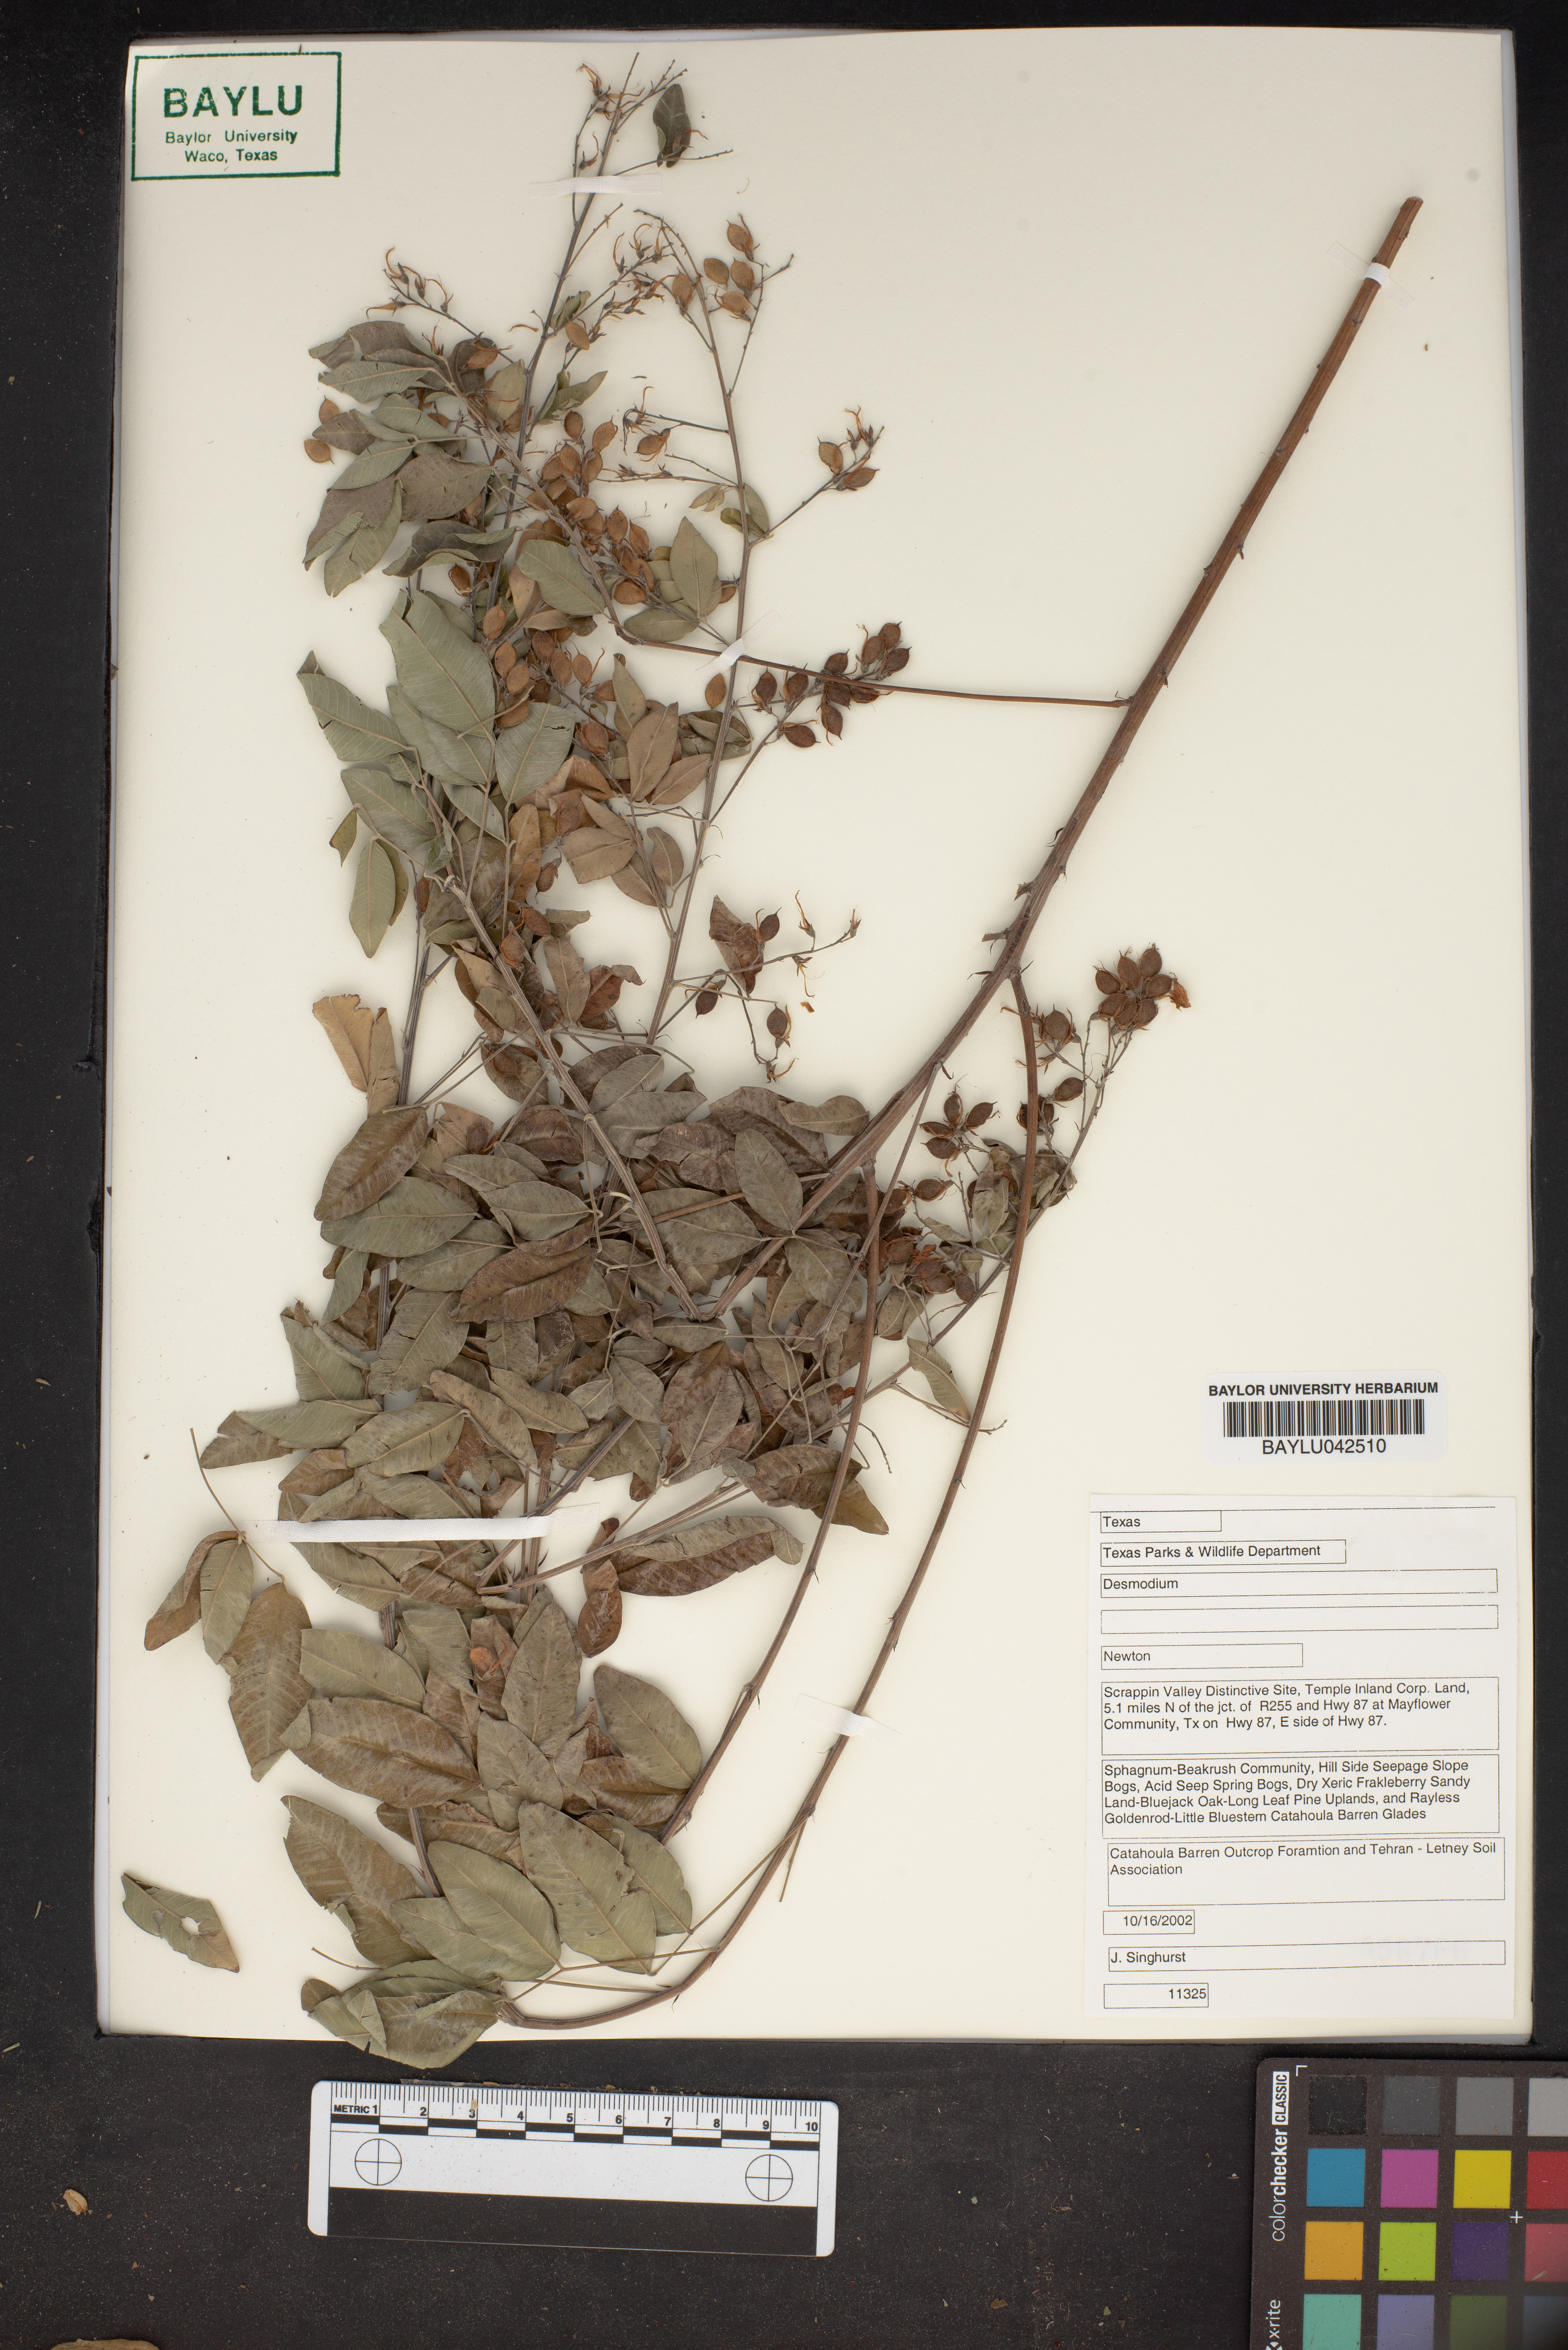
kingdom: Plantae
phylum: Tracheophyta
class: Magnoliopsida
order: Fabales
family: Fabaceae
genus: Desmodium
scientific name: Desmodium
